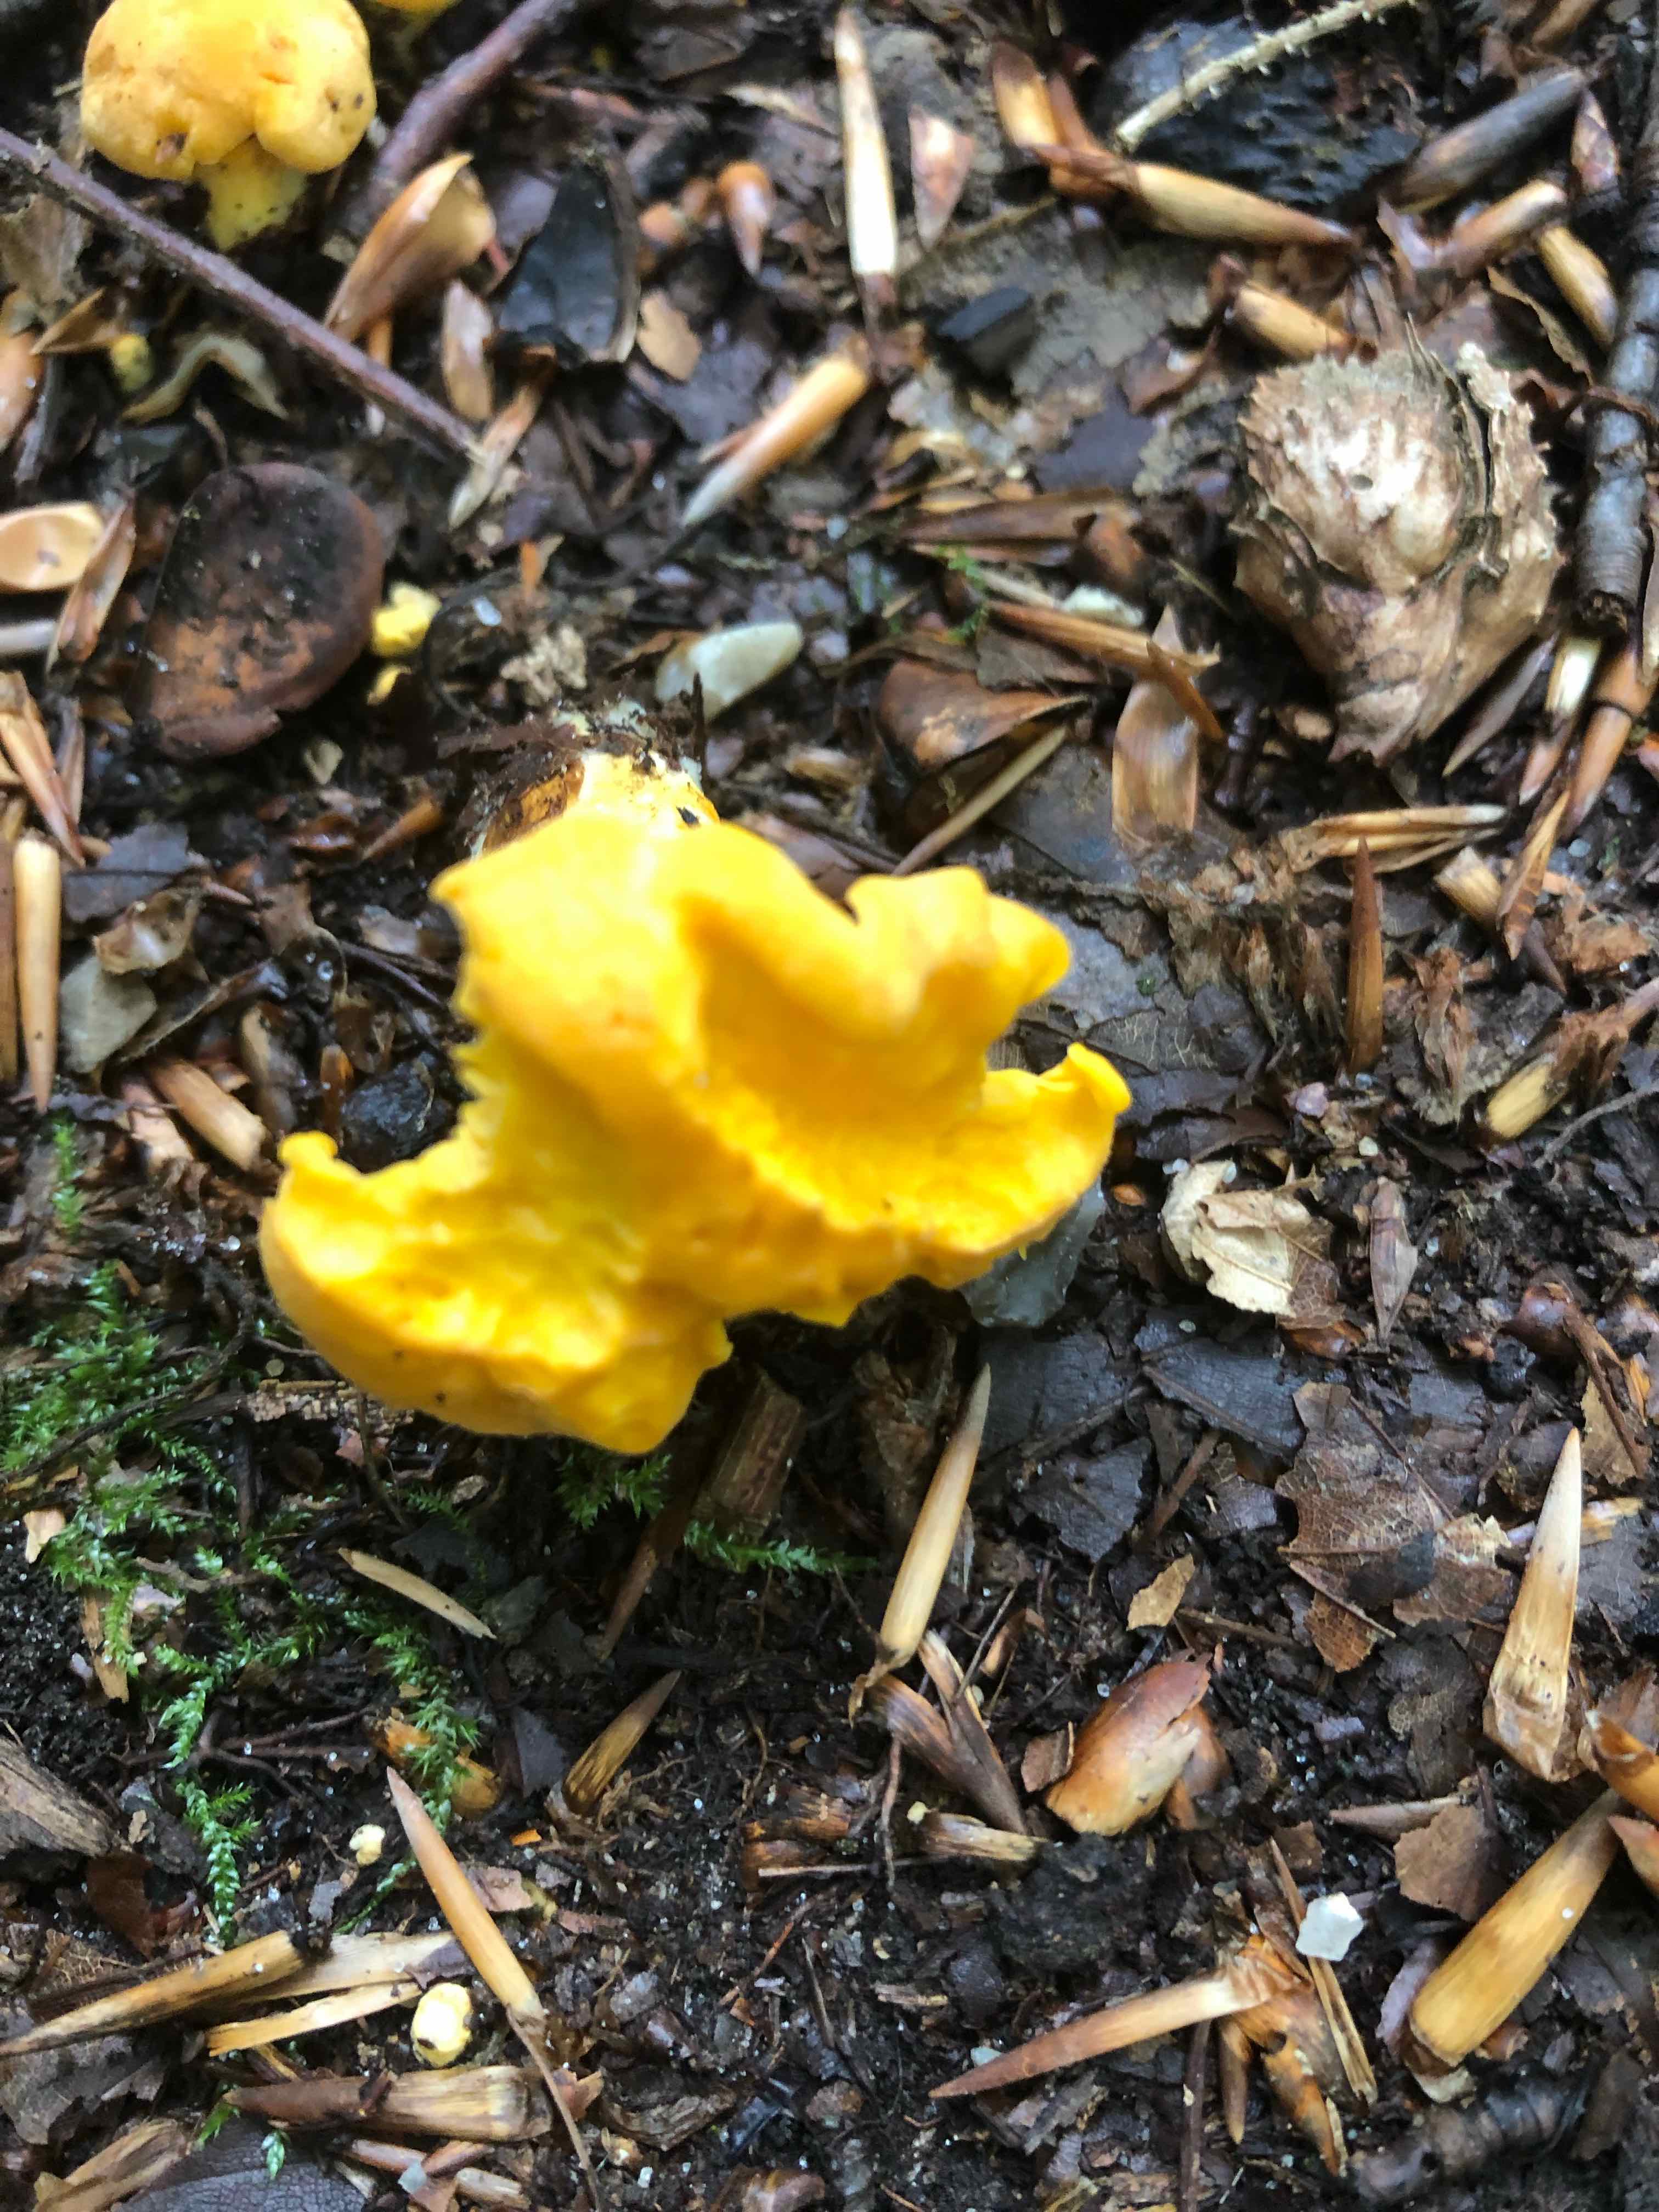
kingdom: Fungi
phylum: Basidiomycota
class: Agaricomycetes
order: Cantharellales
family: Hydnaceae
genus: Cantharellus
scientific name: Cantharellus cibarius
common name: almindelig kantarel
